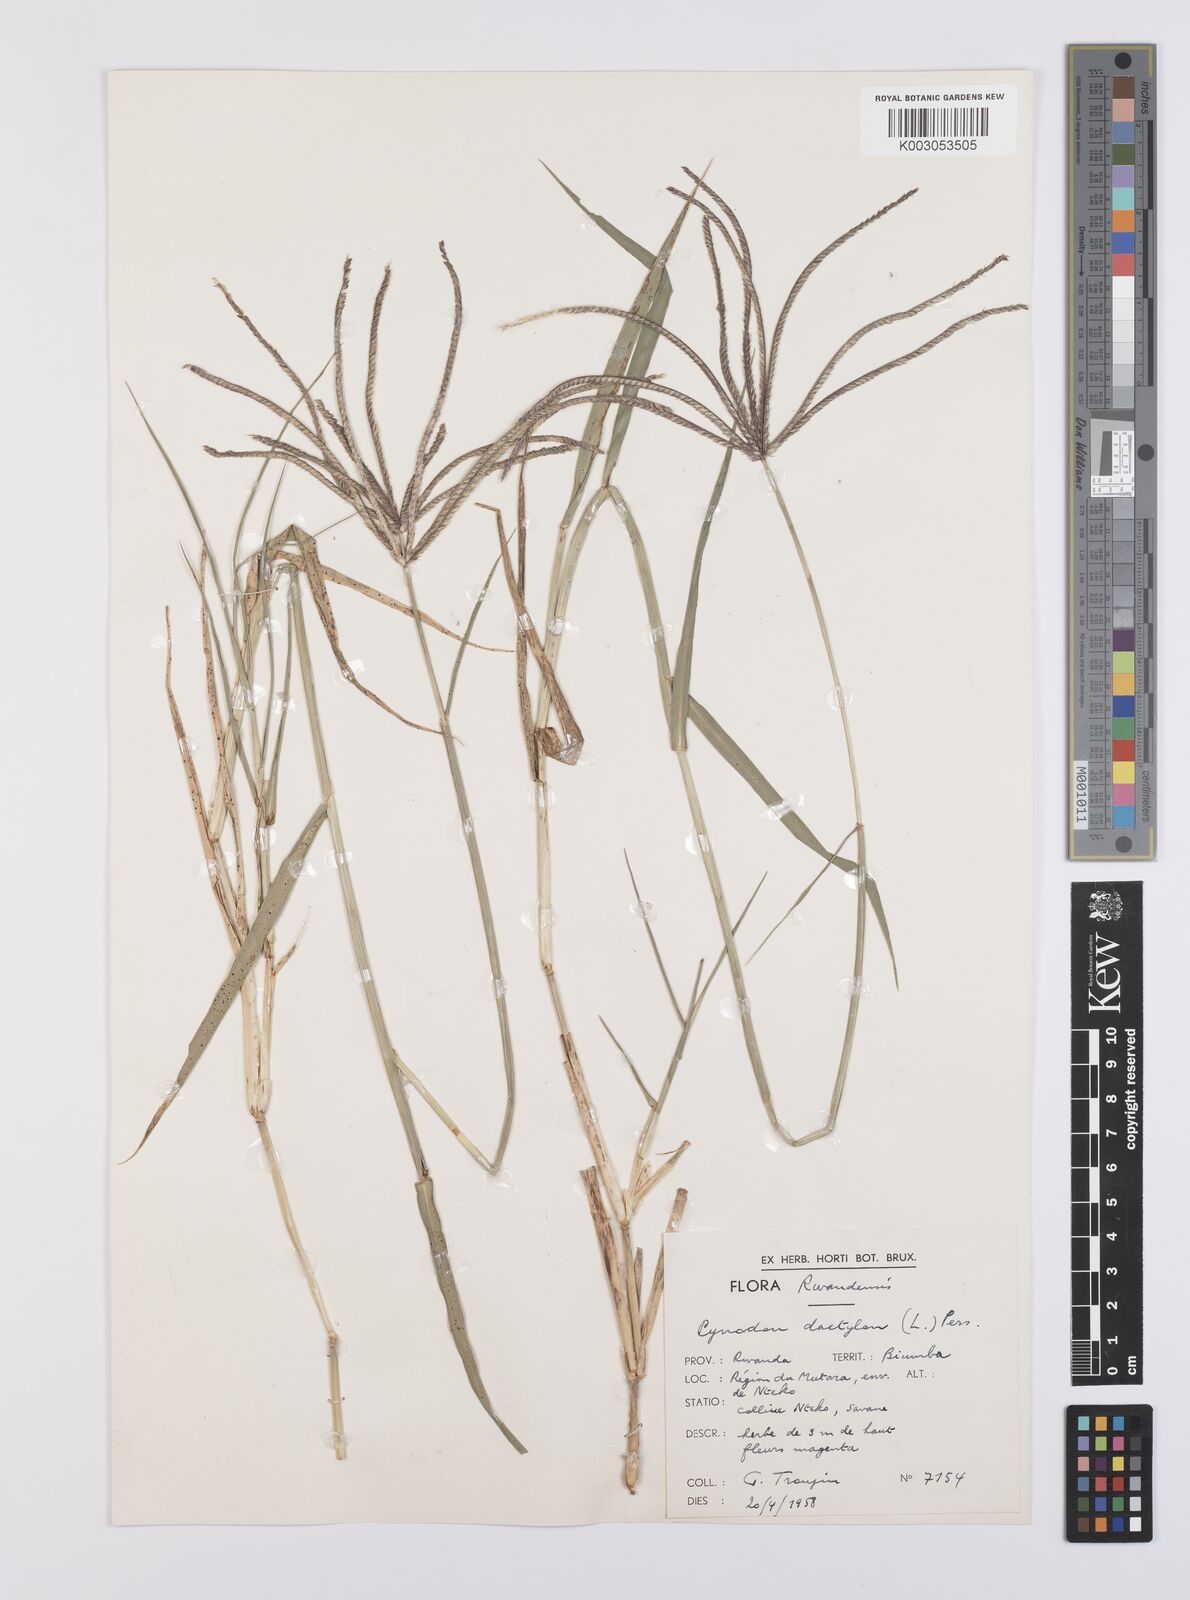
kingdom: Plantae
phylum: Tracheophyta
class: Liliopsida
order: Poales
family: Poaceae
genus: Cynodon
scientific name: Cynodon nlemfuensis
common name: African bermudagrass
